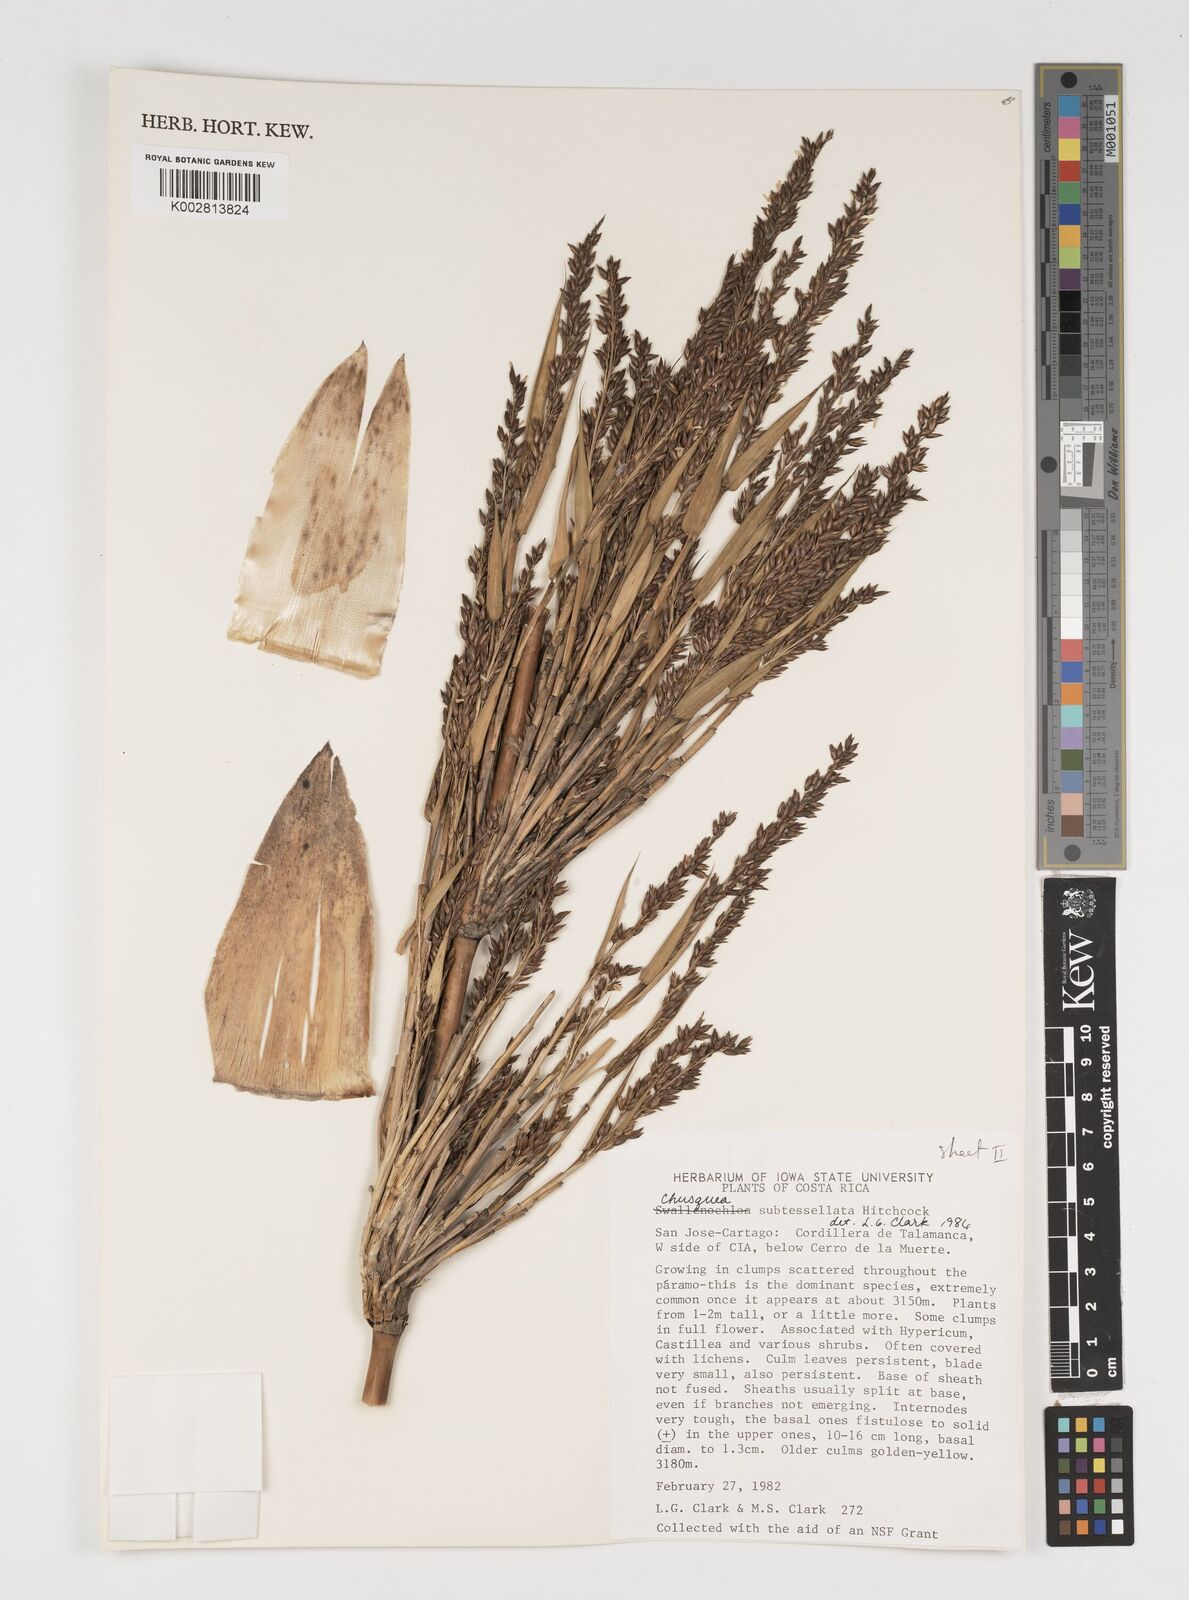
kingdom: Plantae
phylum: Tracheophyta
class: Liliopsida
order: Poales
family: Poaceae
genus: Chusquea
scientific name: Chusquea subtessellata
